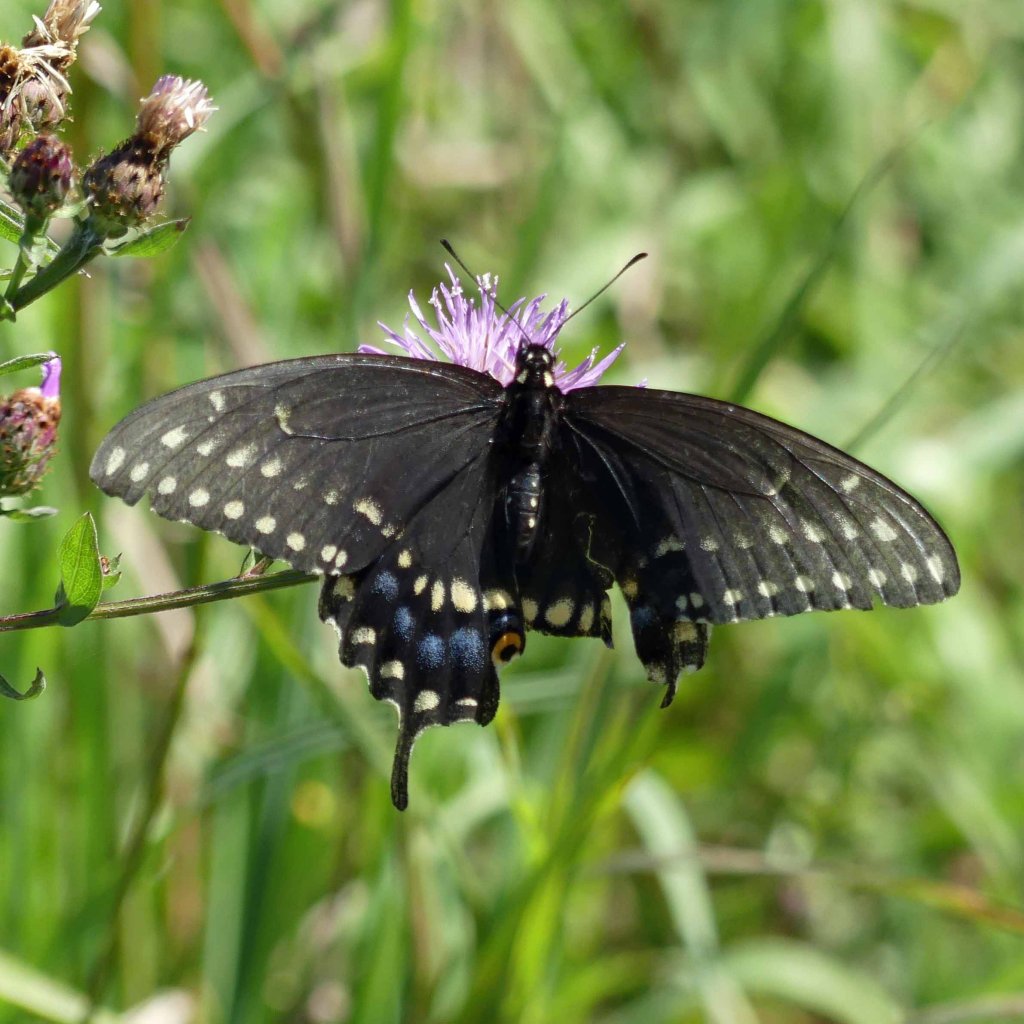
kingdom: Animalia
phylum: Arthropoda
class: Insecta
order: Lepidoptera
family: Papilionidae
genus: Papilio
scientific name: Papilio polyxenes
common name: Black Swallowtail
